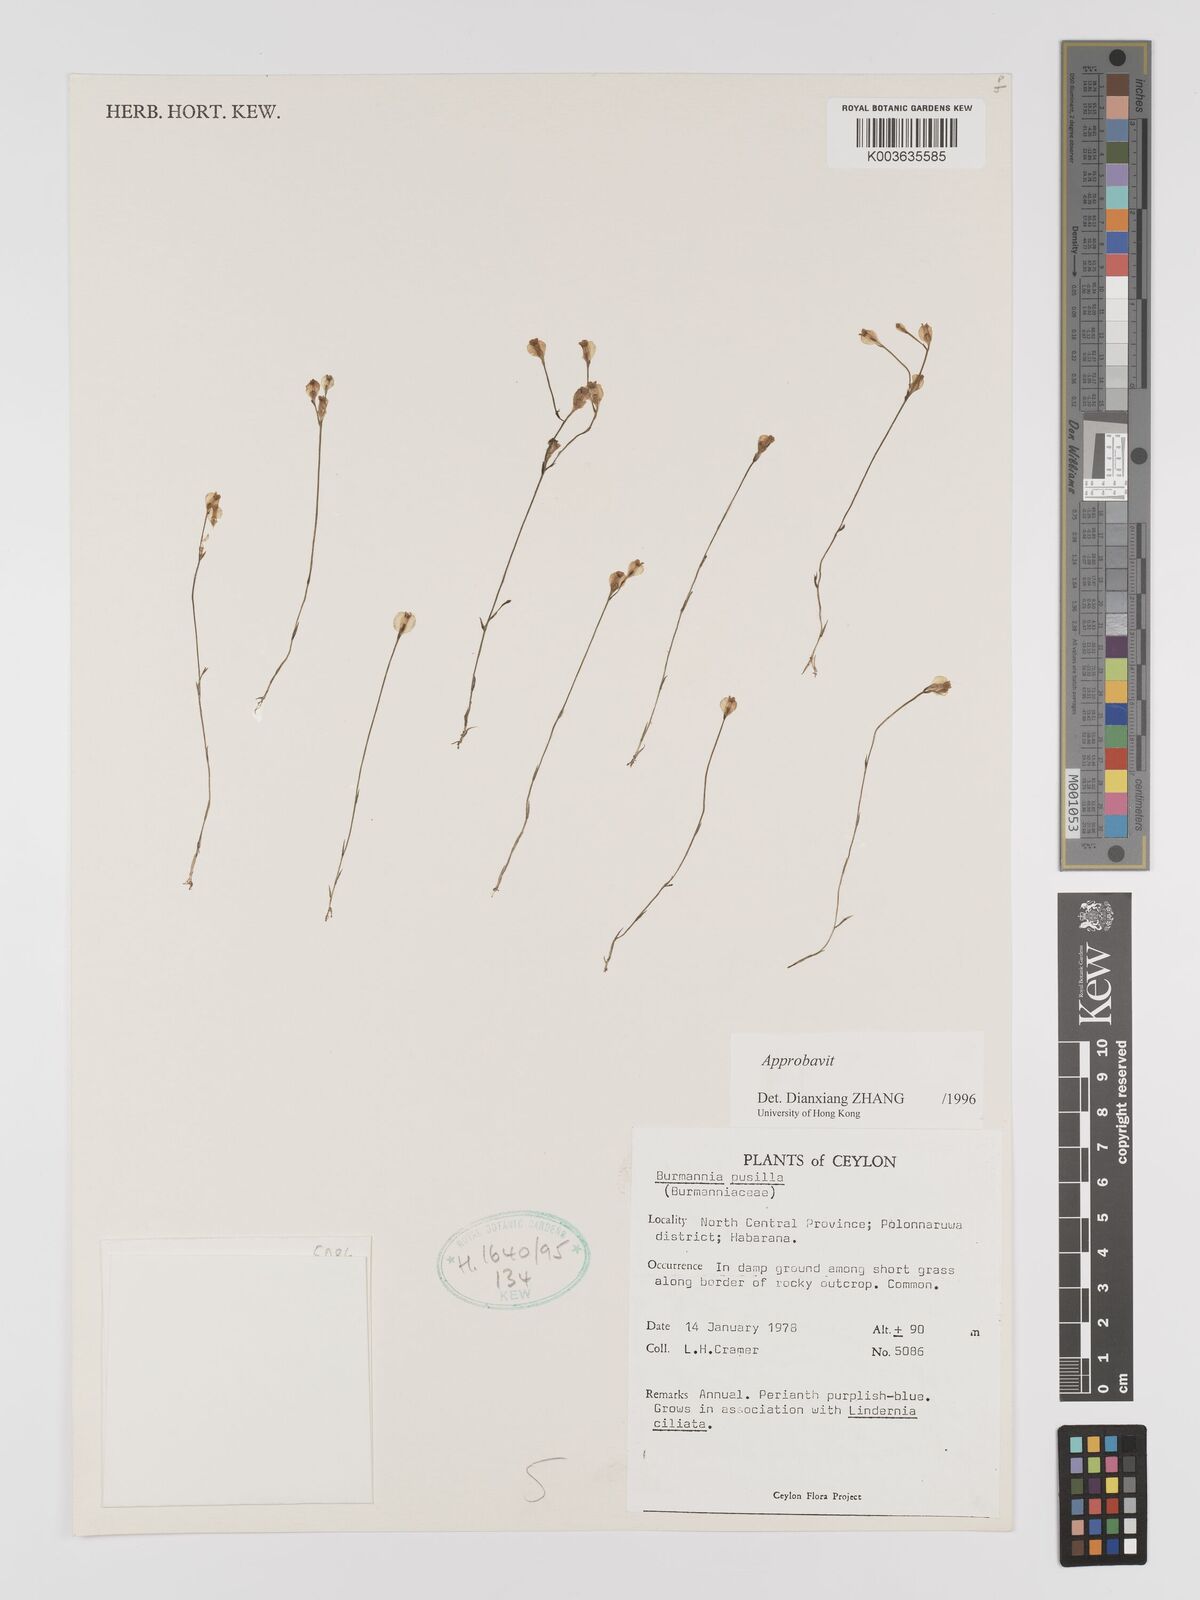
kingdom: Plantae
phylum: Tracheophyta
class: Liliopsida
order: Dioscoreales
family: Burmanniaceae
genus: Burmannia
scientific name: Burmannia pusilla
